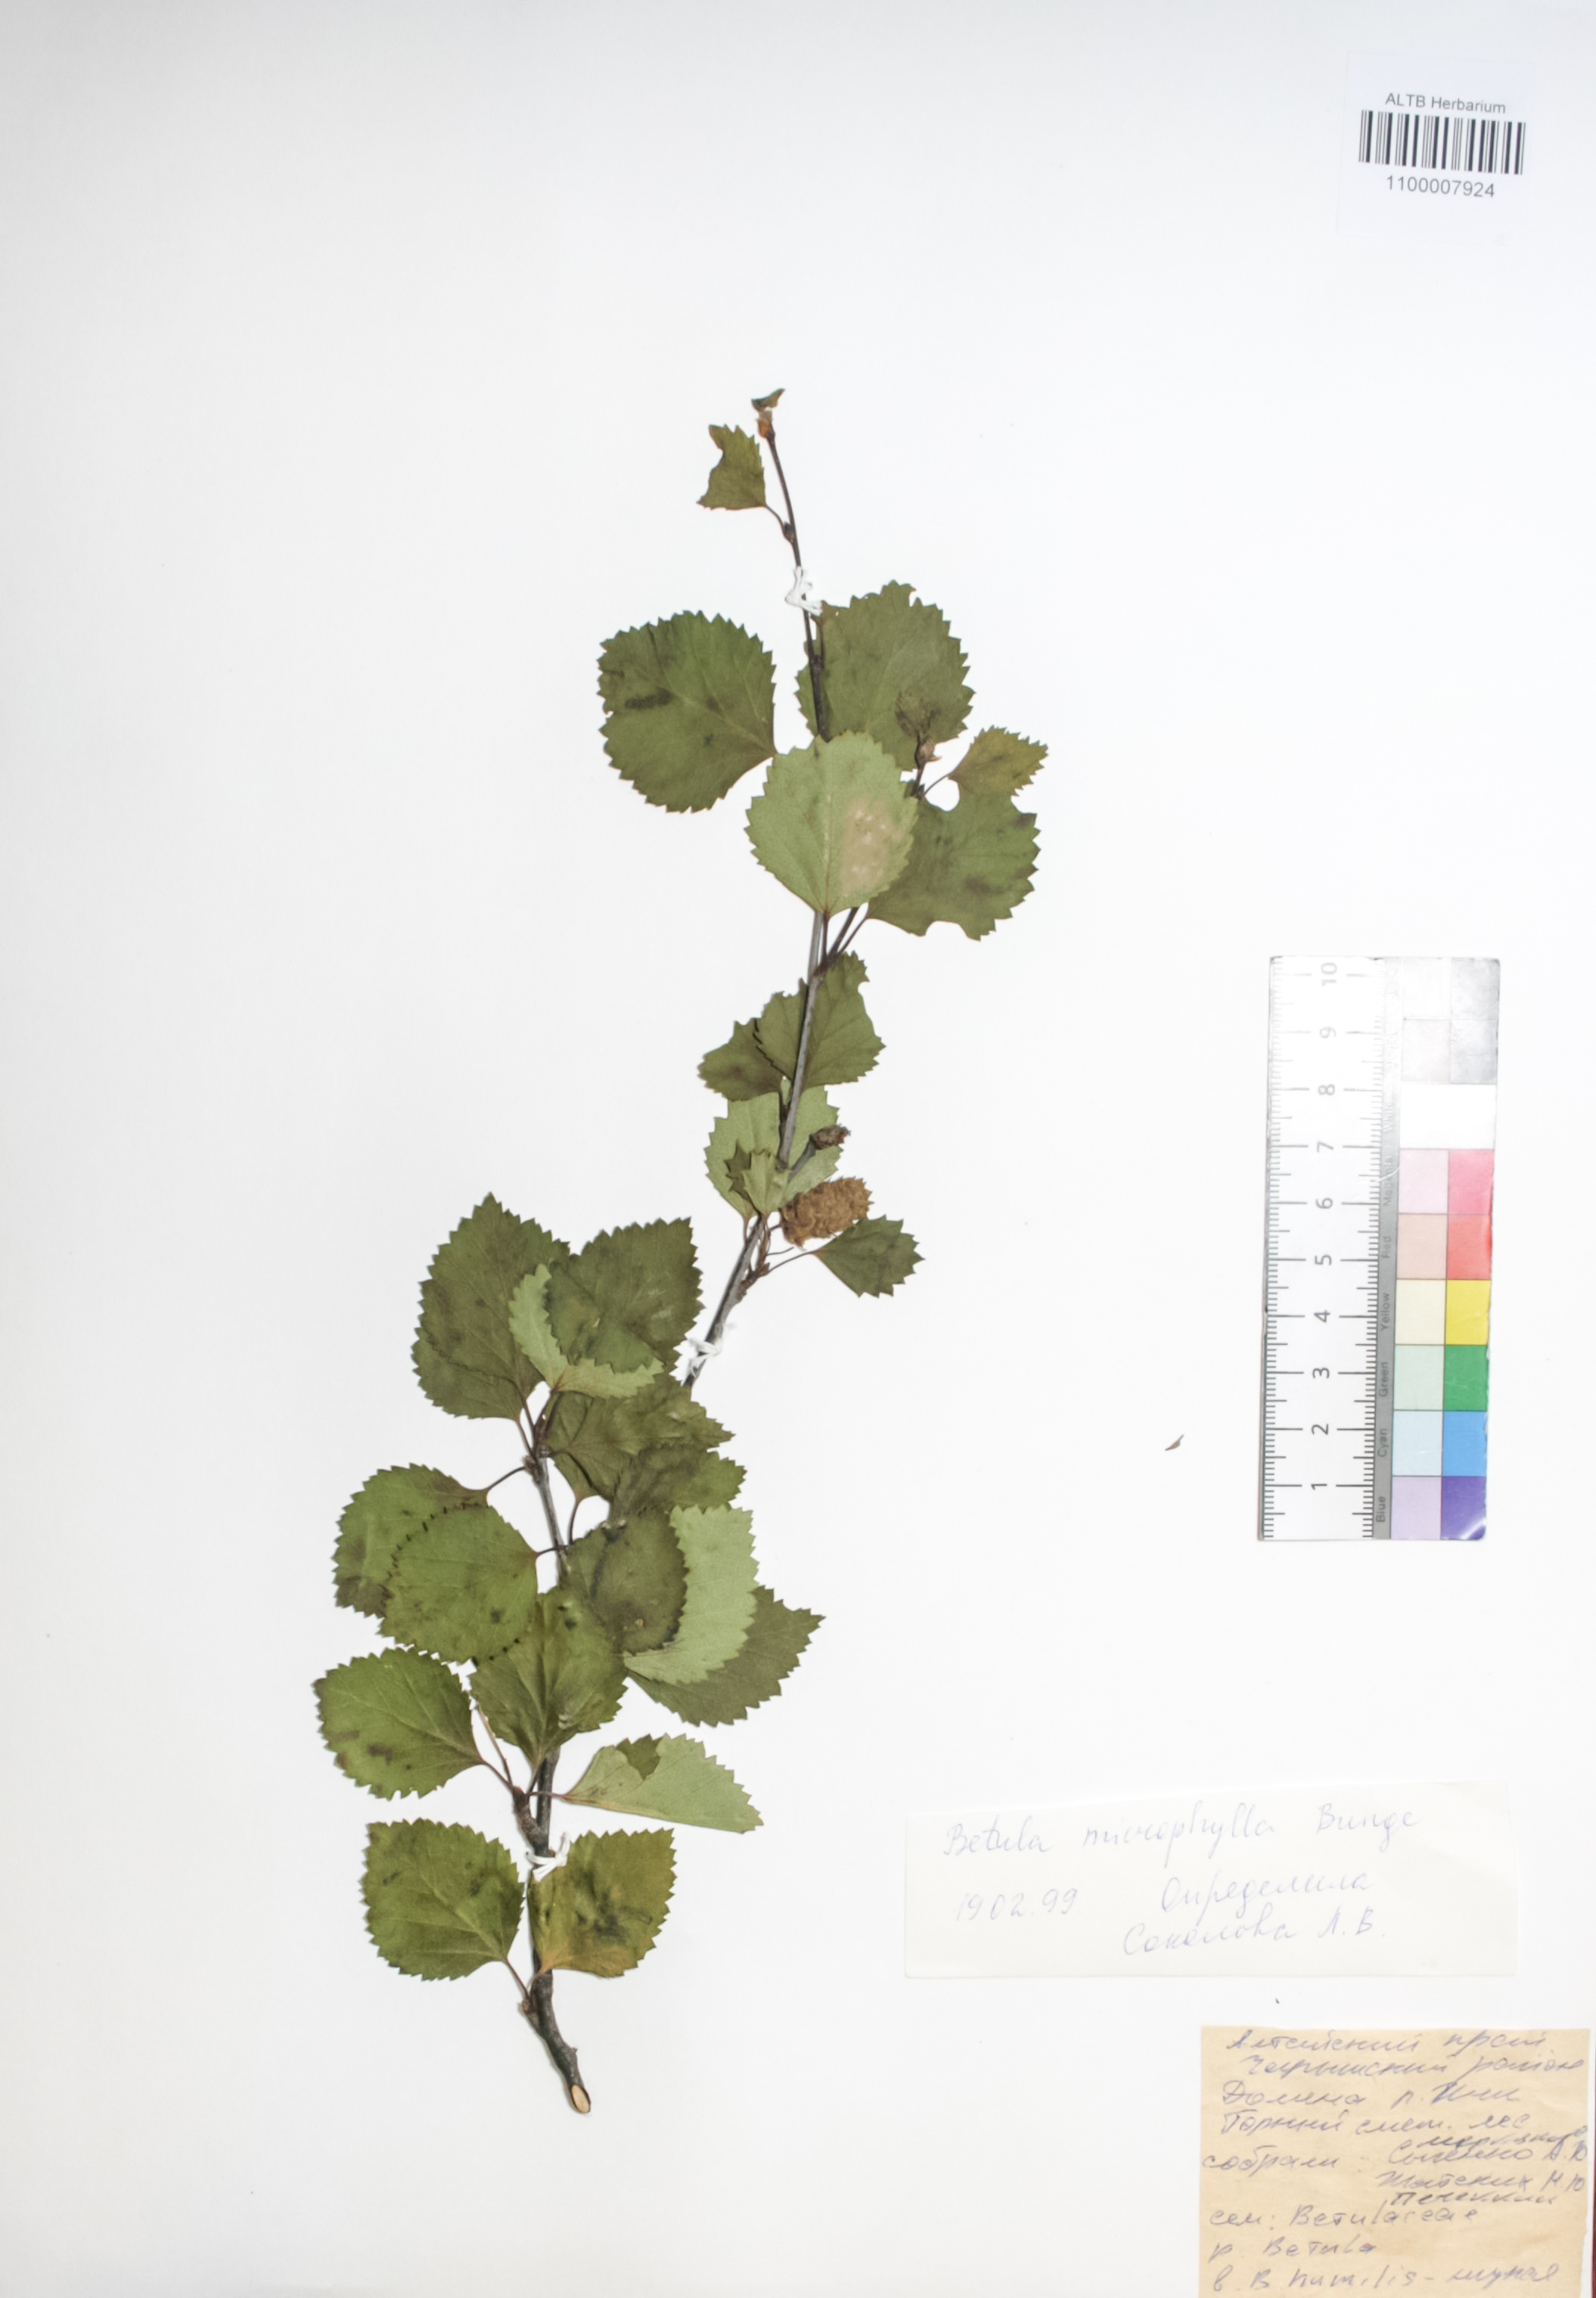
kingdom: Plantae
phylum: Tracheophyta
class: Magnoliopsida
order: Fagales
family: Betulaceae
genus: Betula
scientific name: Betula microphylla
